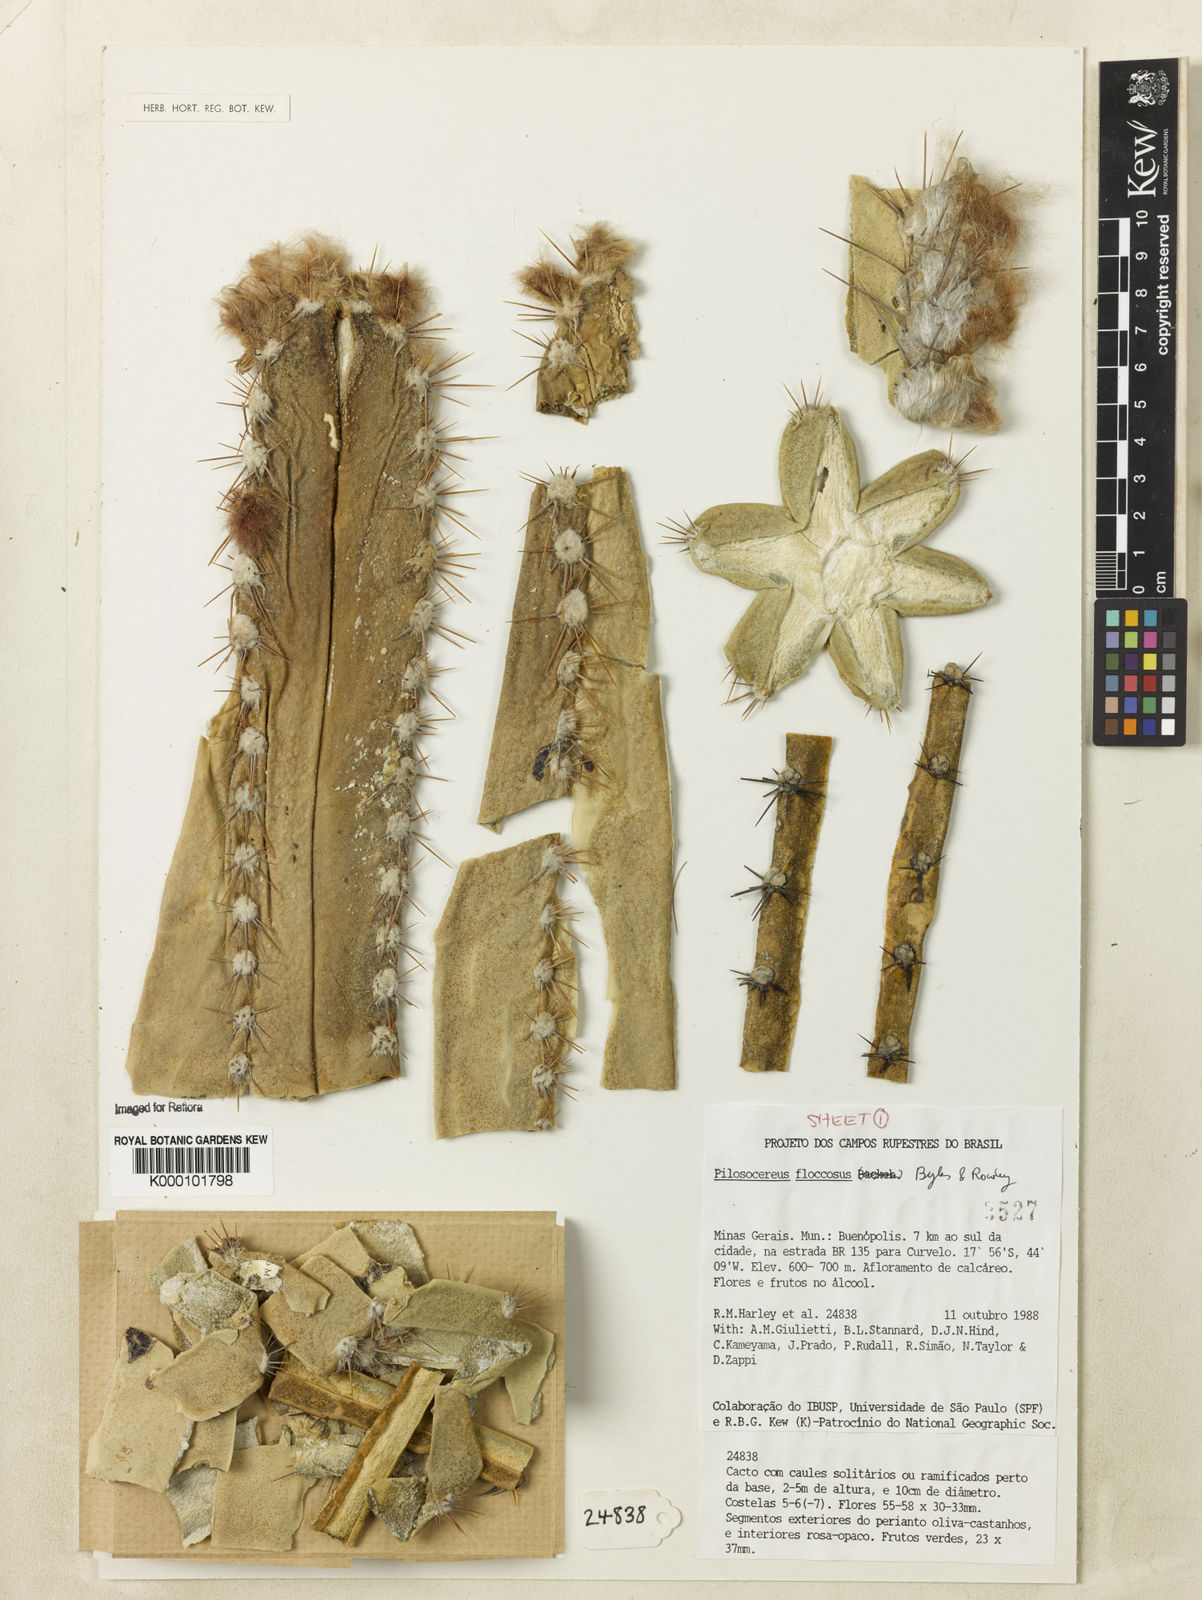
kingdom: Plantae
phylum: Tracheophyta
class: Magnoliopsida
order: Caryophyllales
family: Cactaceae
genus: Pilosocereus
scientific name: Pilosocereus floccosus
